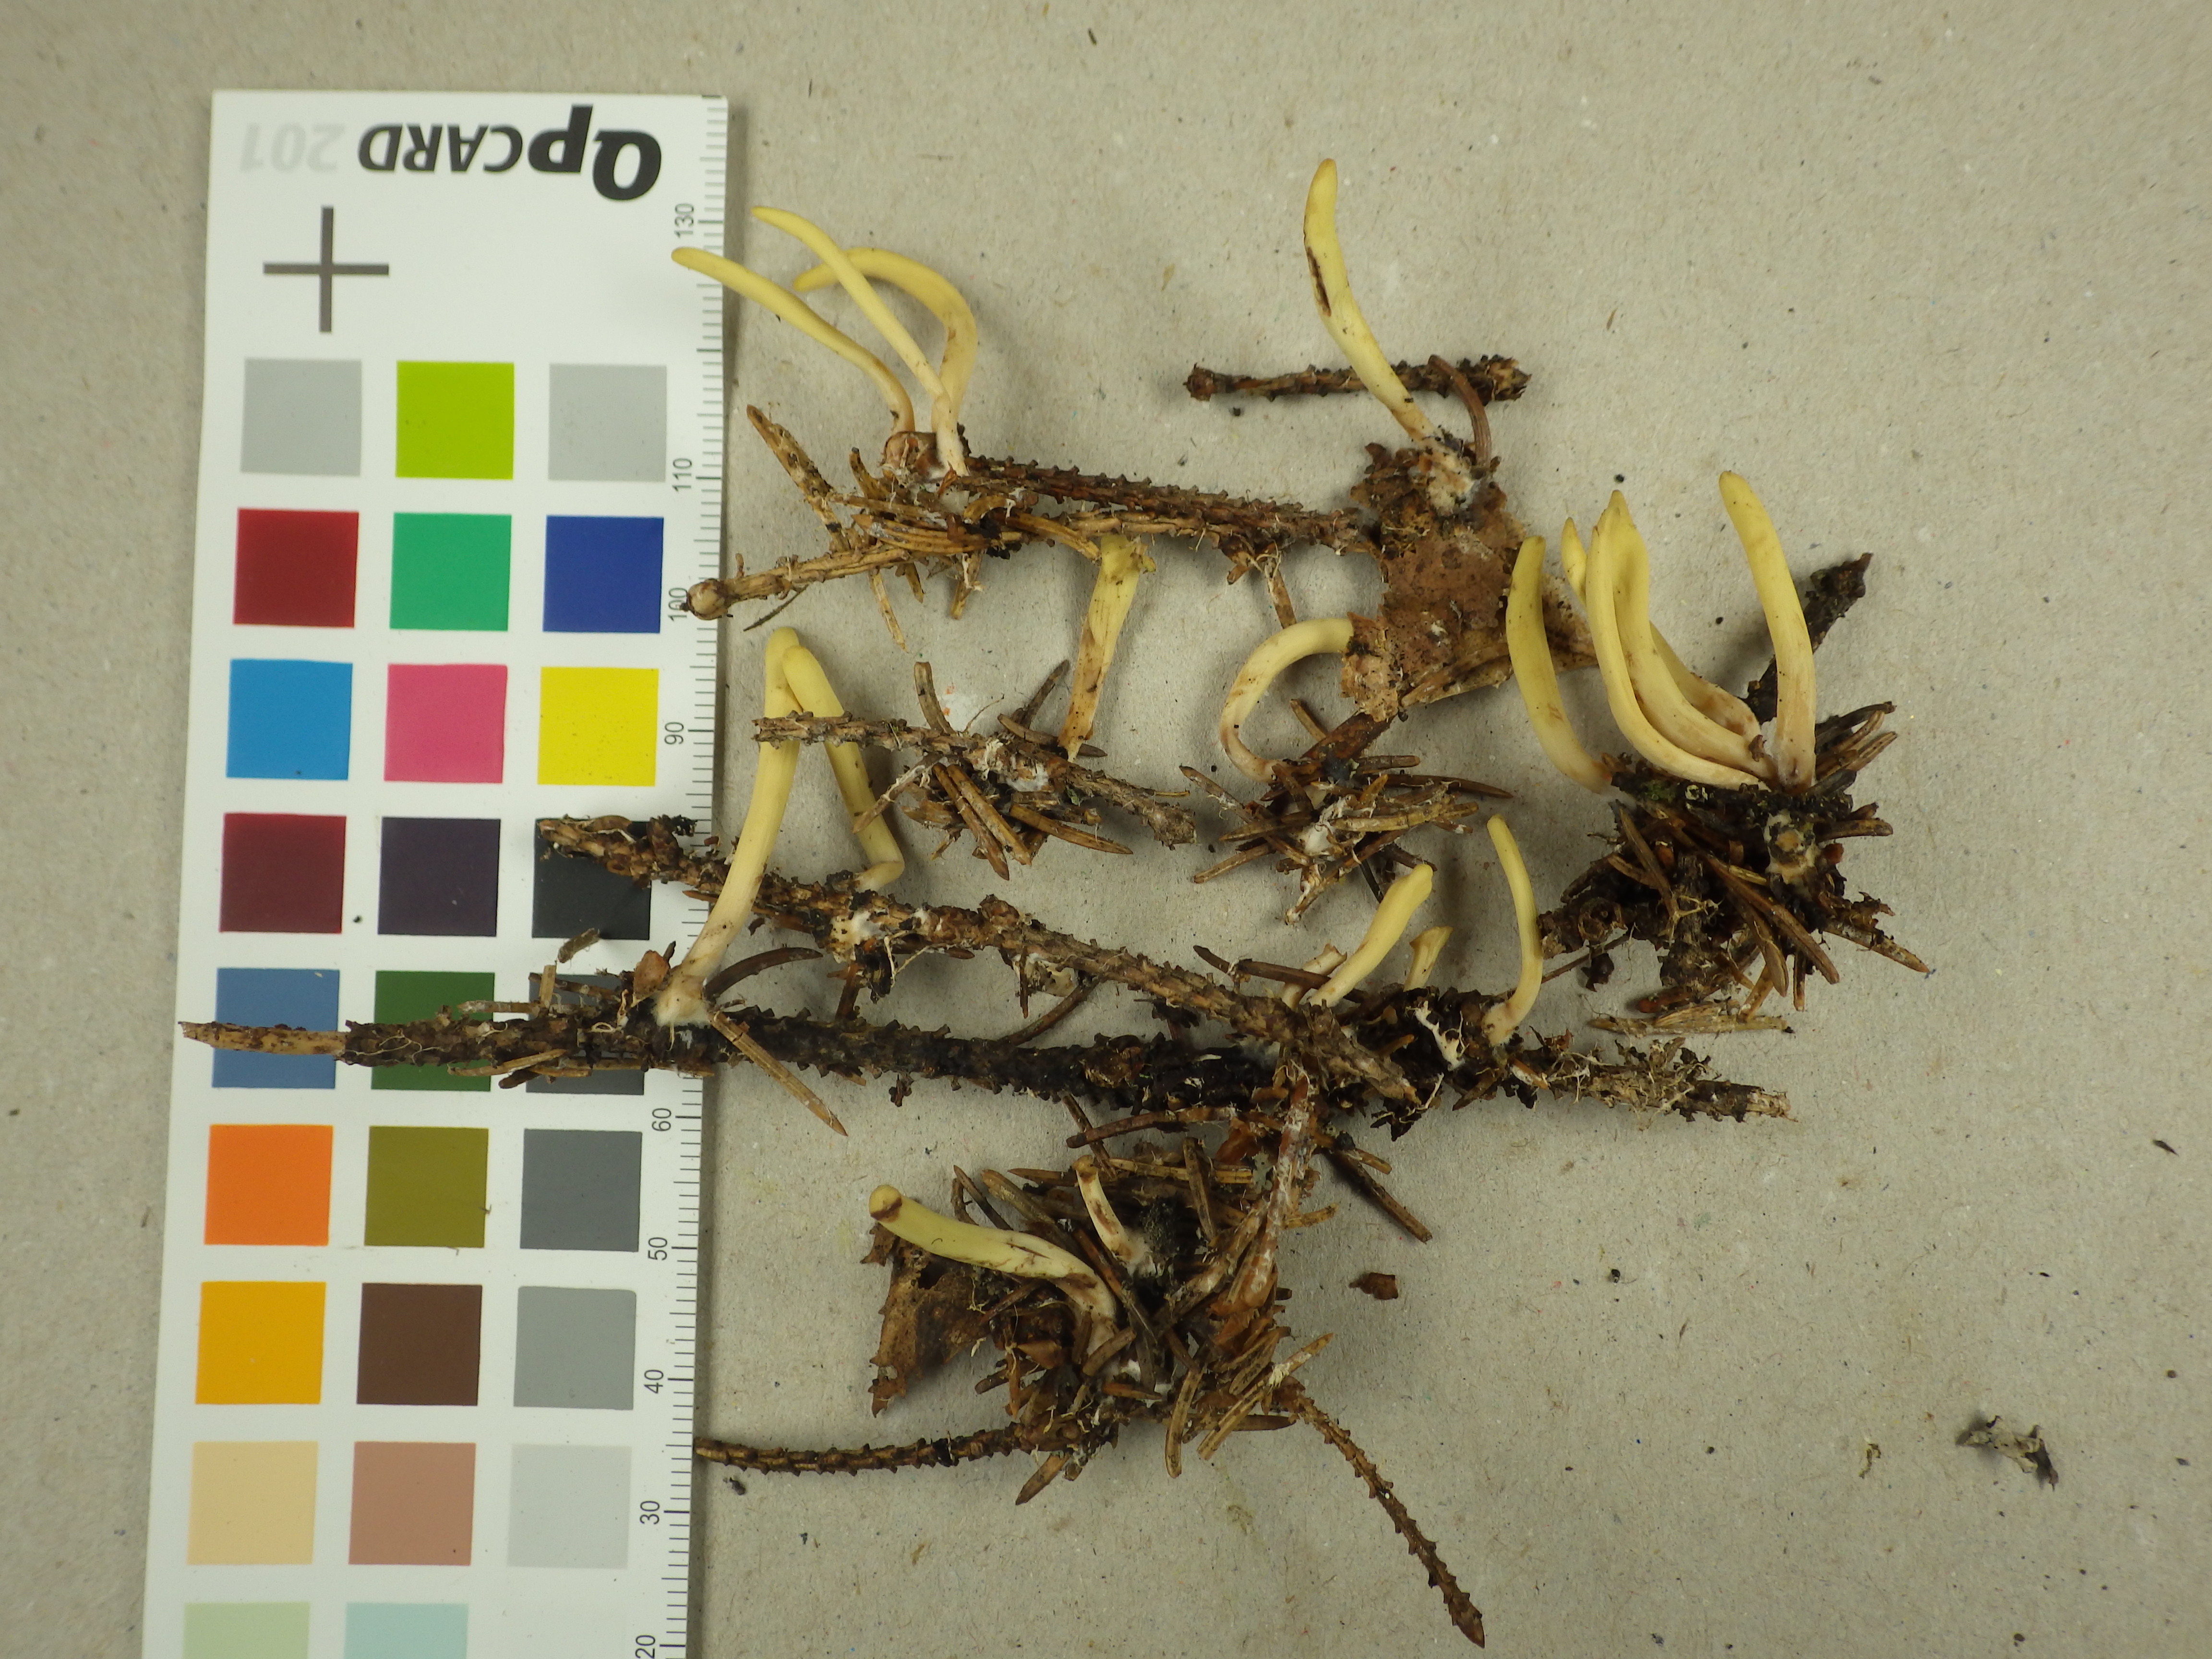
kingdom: Fungi
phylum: Basidiomycota
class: Agaricomycetes
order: Gomphales
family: Clavariadelphaceae
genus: Clavariadelphus
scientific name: Clavariadelphus ligula
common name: Ochre club
